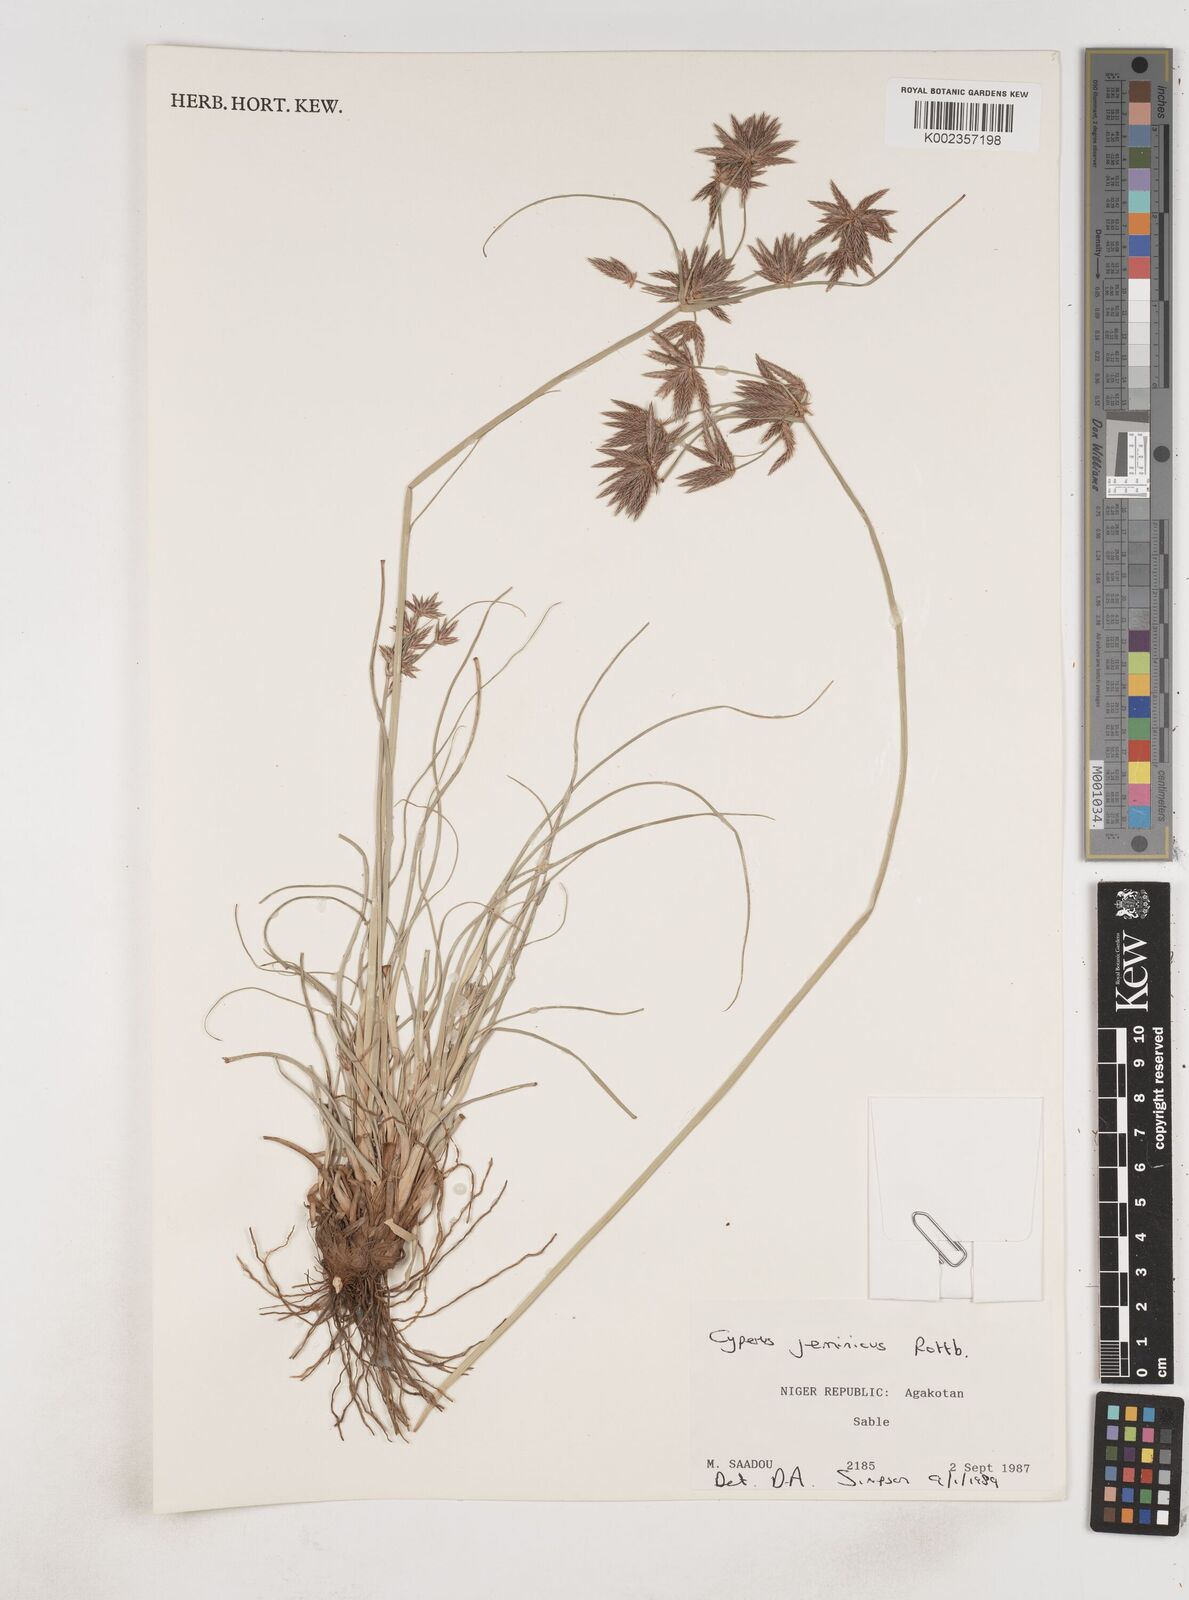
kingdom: Plantae
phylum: Tracheophyta
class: Liliopsida
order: Poales
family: Cyperaceae
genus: Cyperus
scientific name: Cyperus jeminicus
